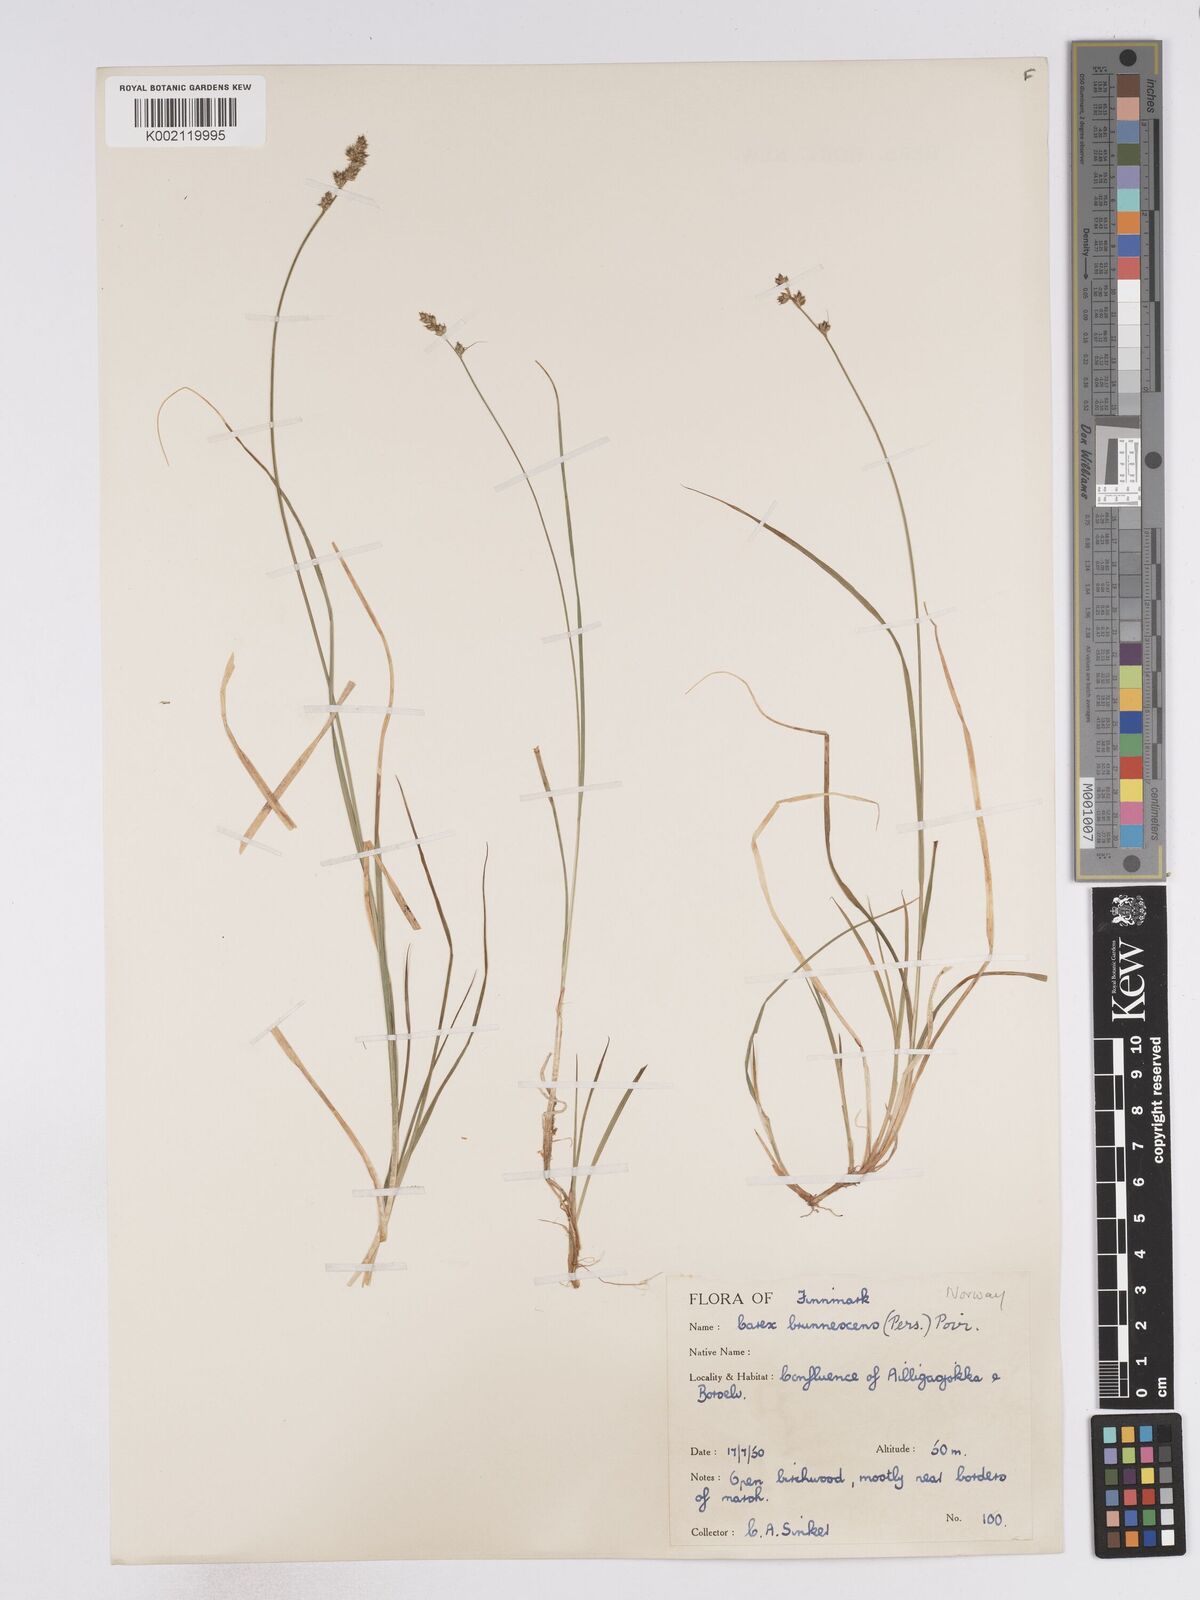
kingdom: Plantae
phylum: Tracheophyta
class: Liliopsida
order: Poales
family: Cyperaceae
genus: Carex
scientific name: Carex brunnescens
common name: Brown sedge
